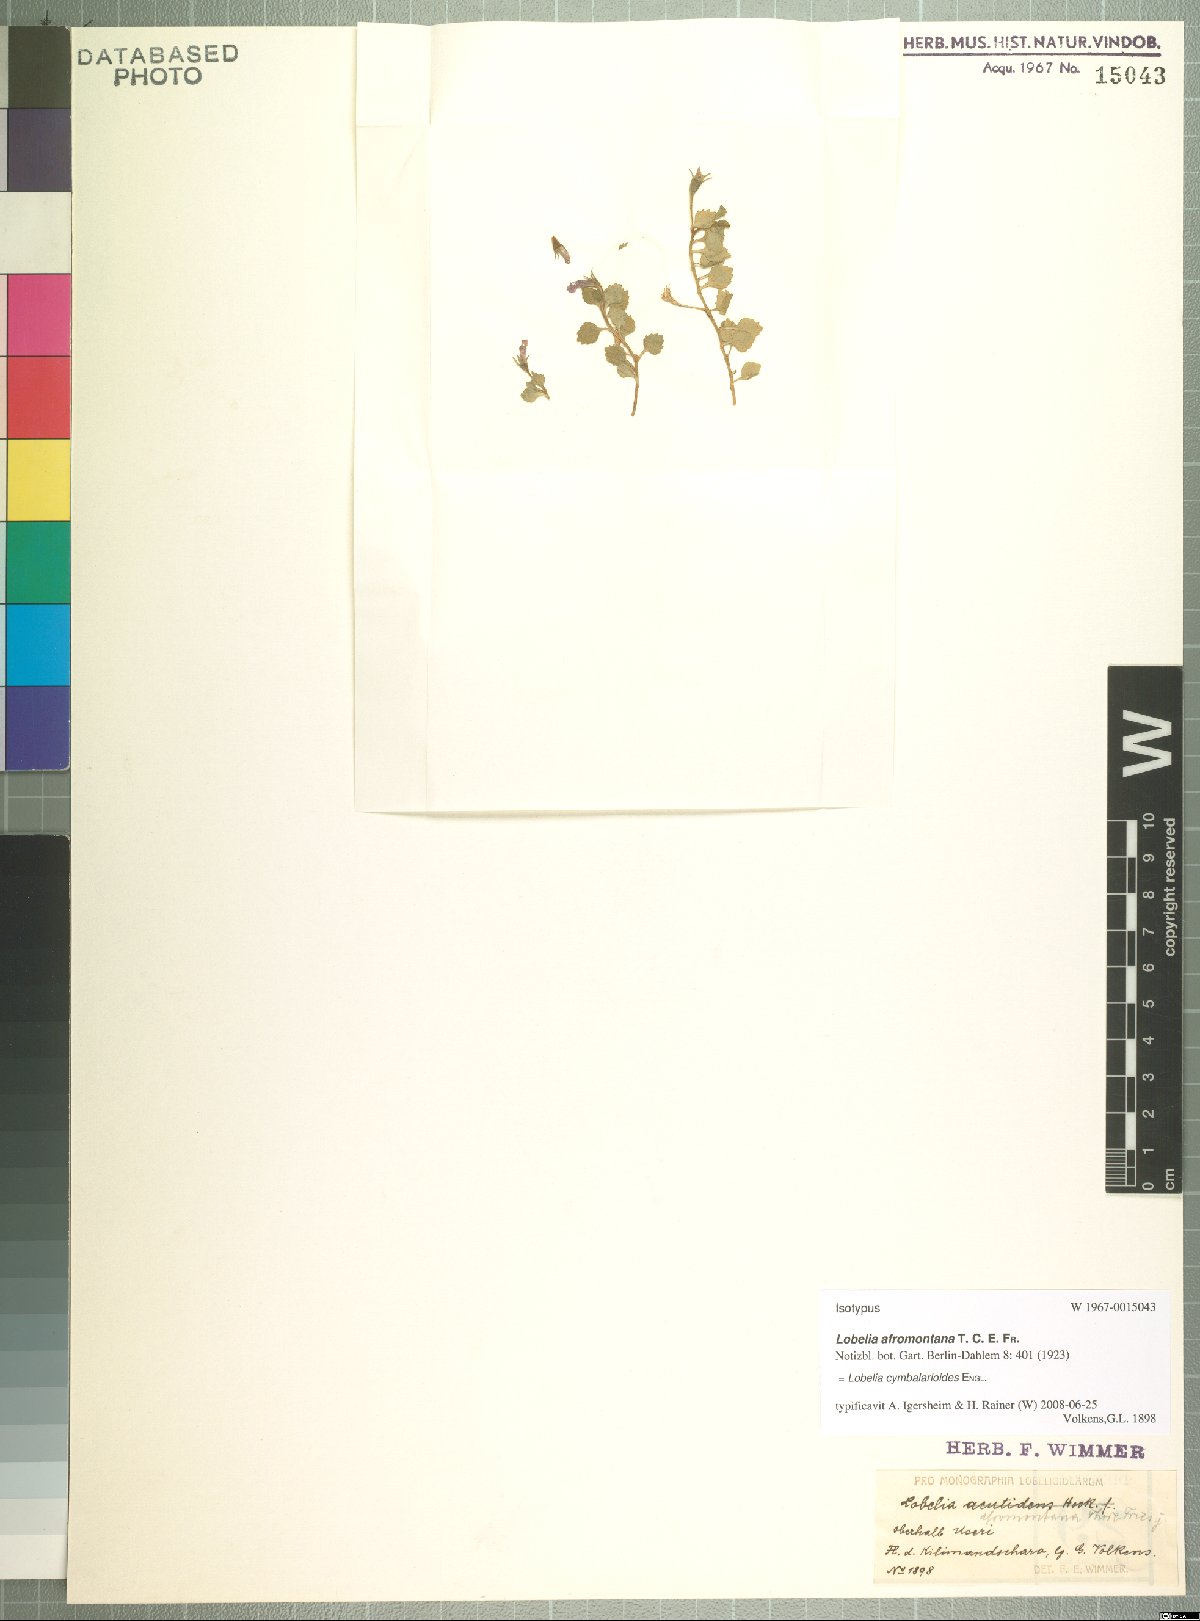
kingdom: Plantae
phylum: Tracheophyta
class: Magnoliopsida
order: Asterales
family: Campanulaceae
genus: Lobelia
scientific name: Lobelia cymbalarioides
